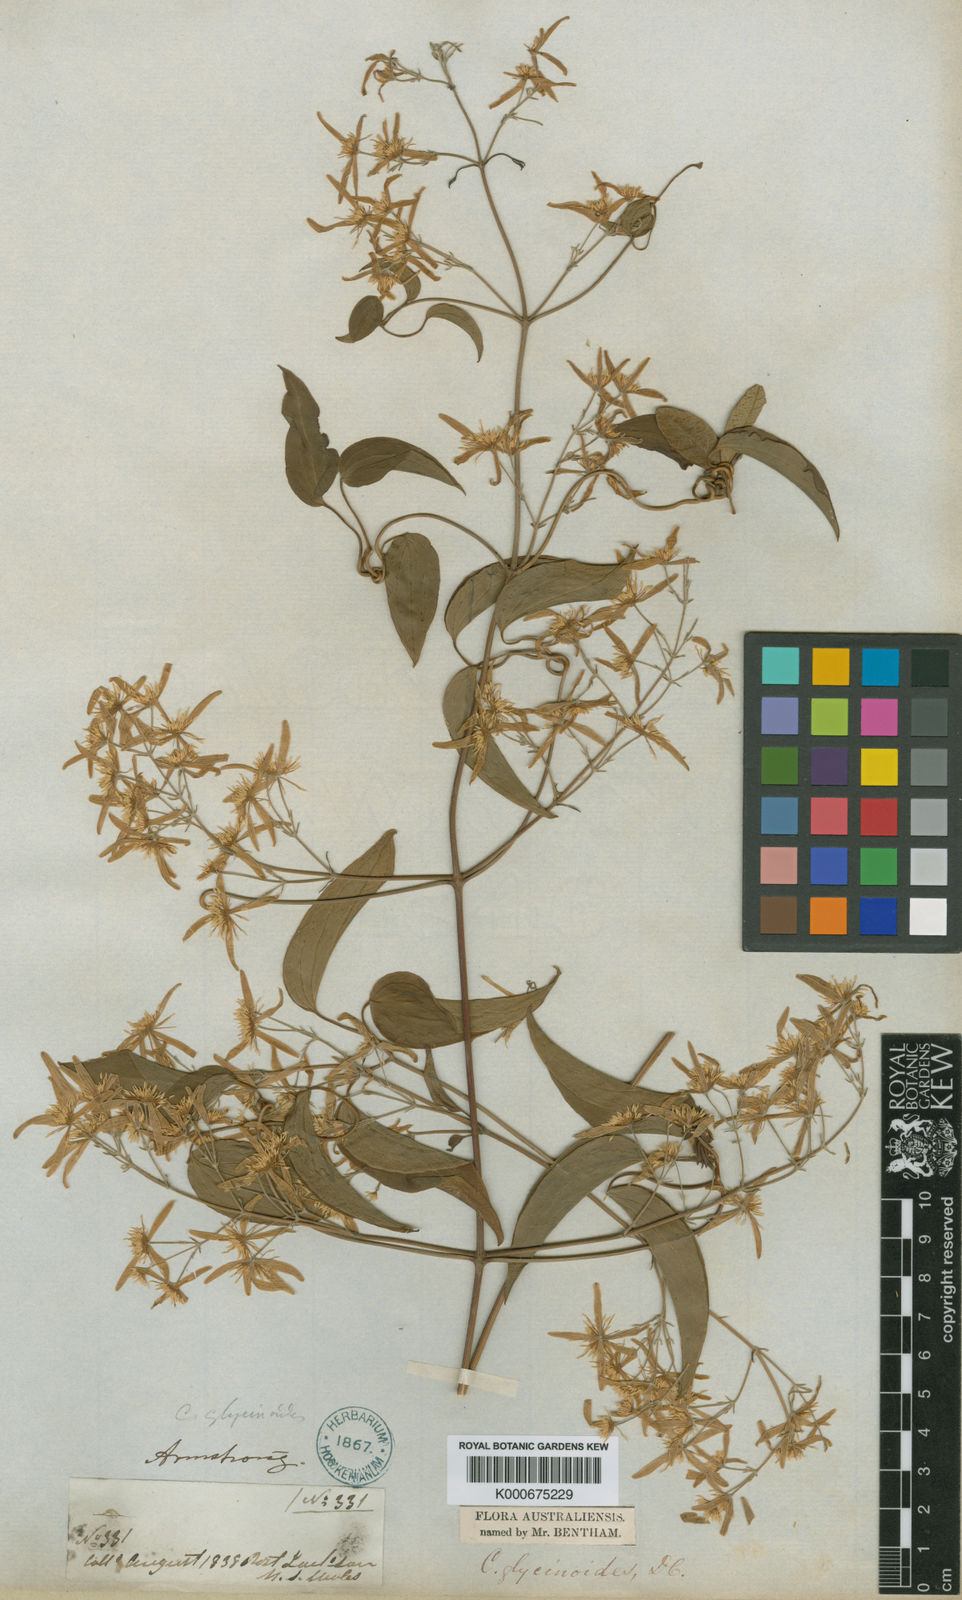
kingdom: Plantae
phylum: Tracheophyta
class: Magnoliopsida
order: Ranunculales
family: Ranunculaceae
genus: Clematis
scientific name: Clematis glycinoides
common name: Forest clematis
